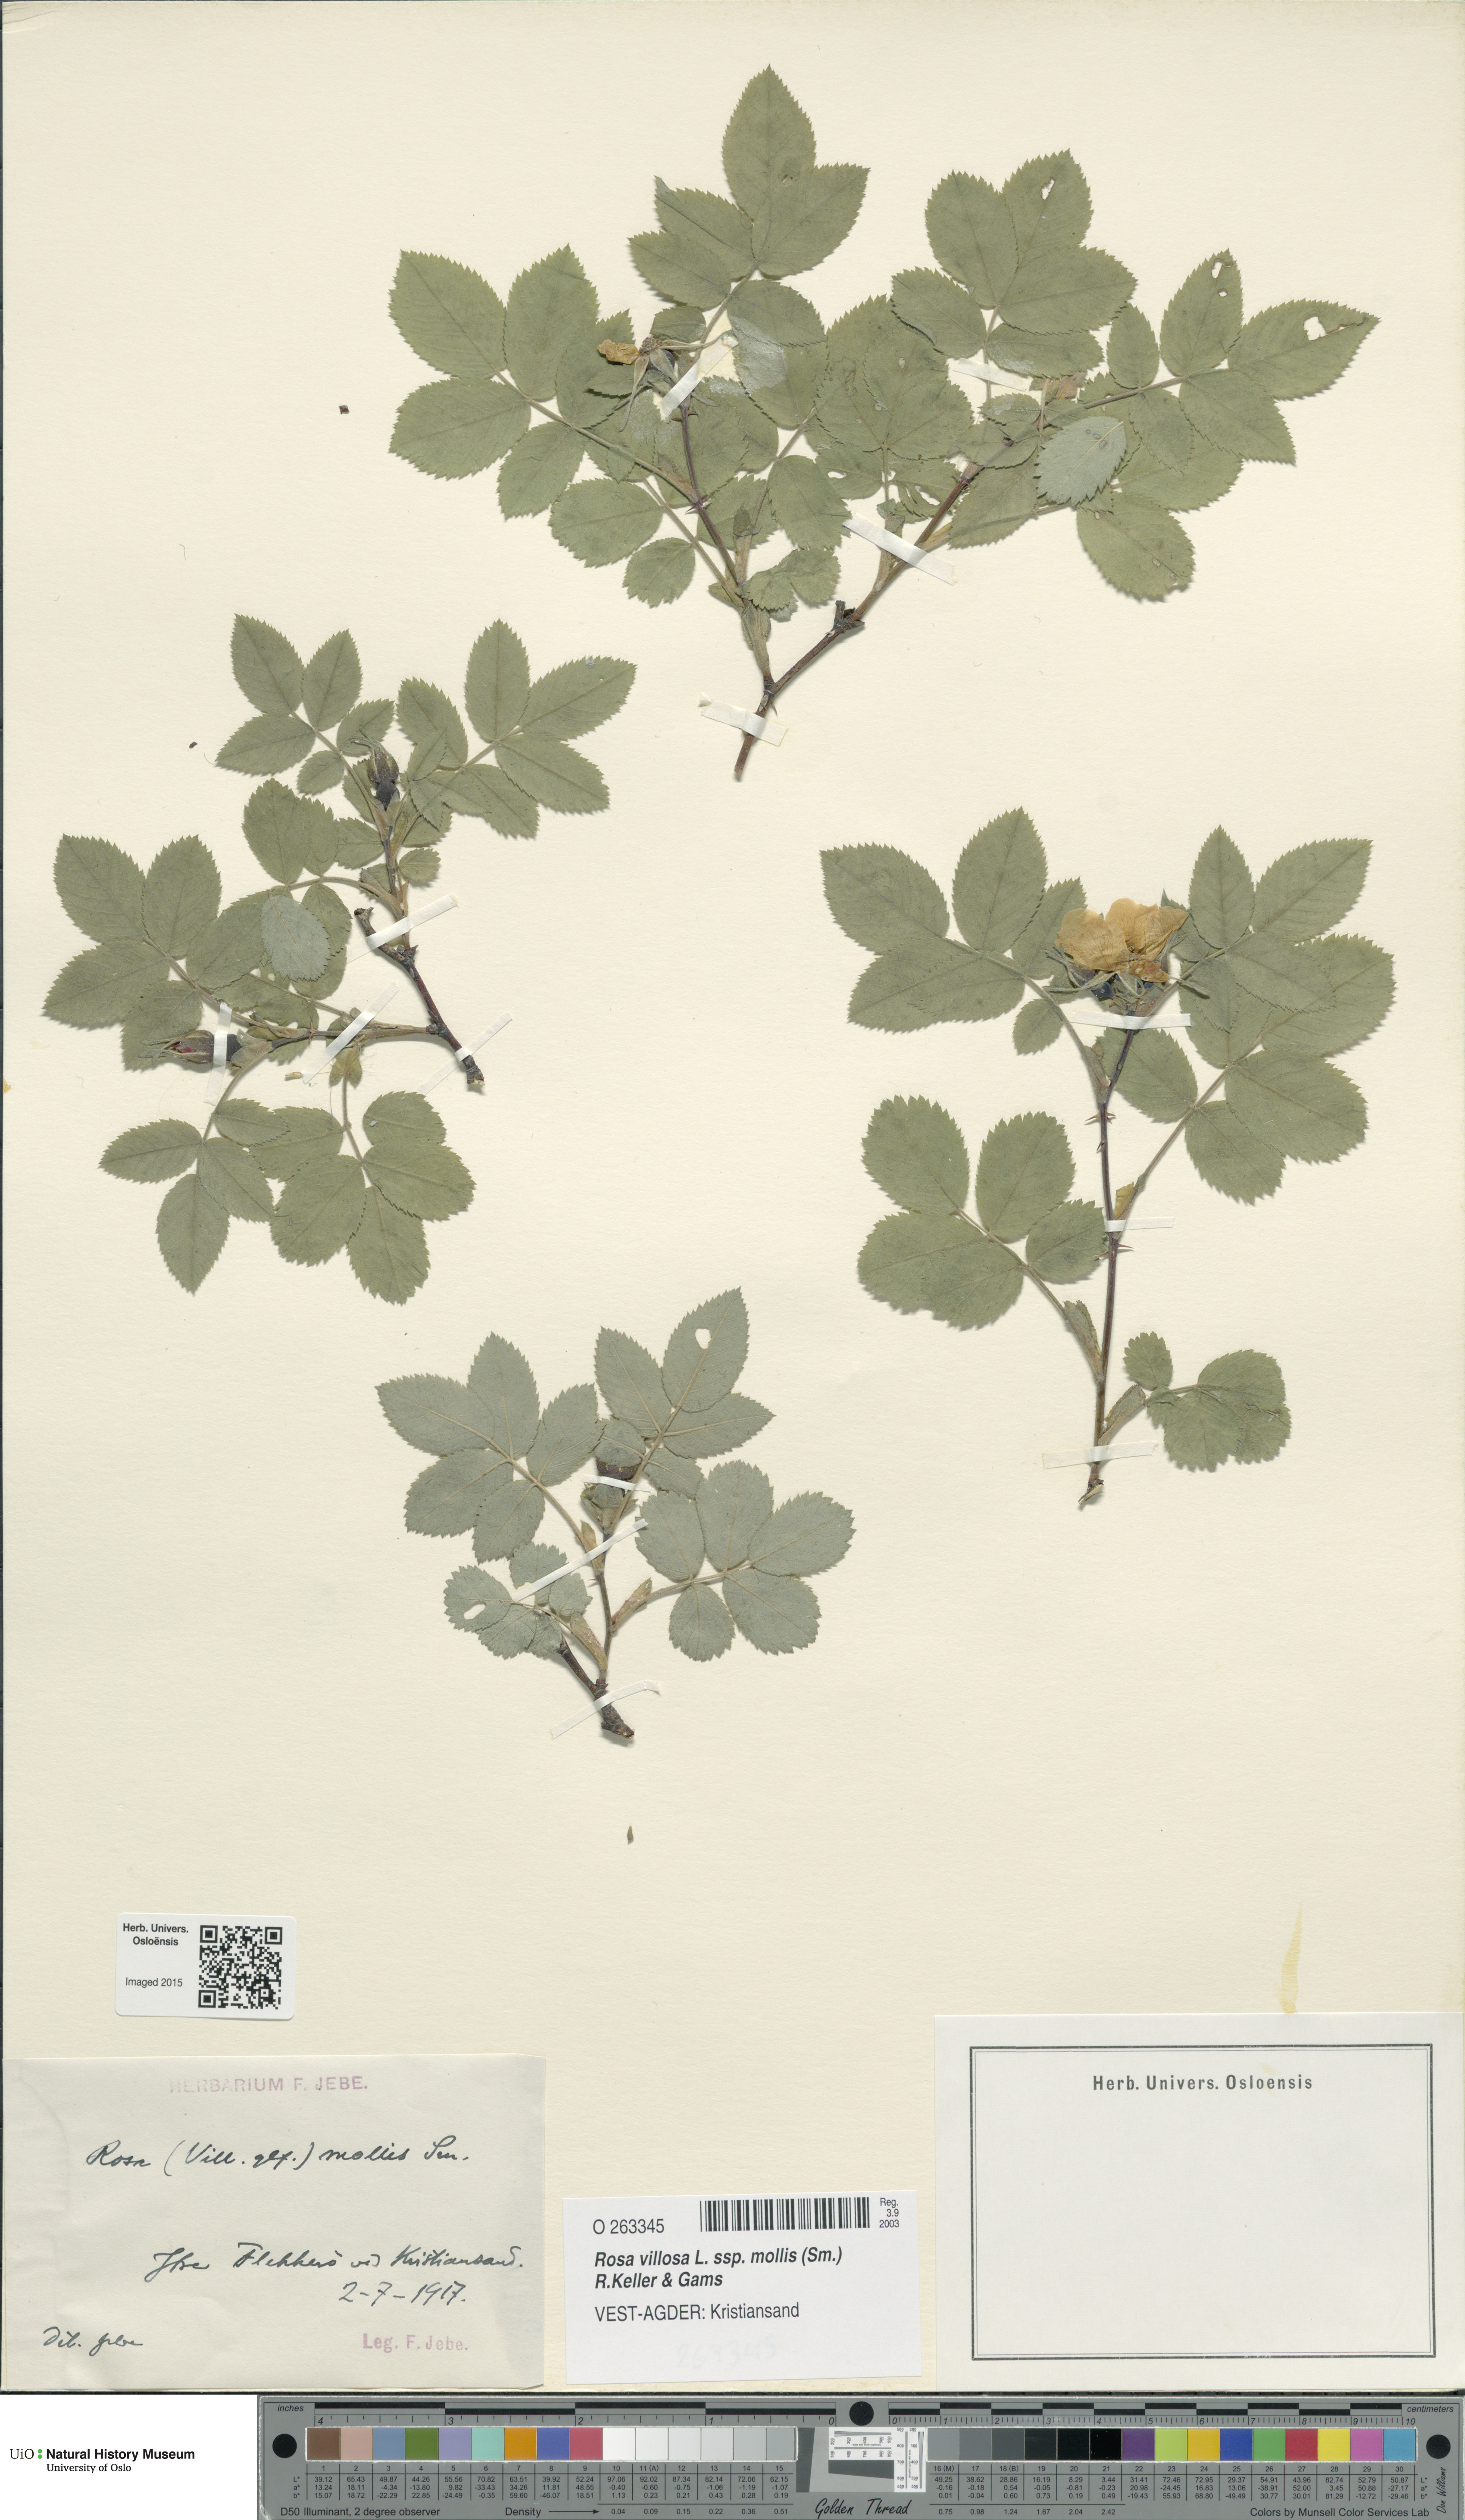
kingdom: Plantae
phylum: Tracheophyta
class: Magnoliopsida
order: Rosales
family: Rosaceae
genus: Rosa
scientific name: Rosa mollis
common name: Rose
